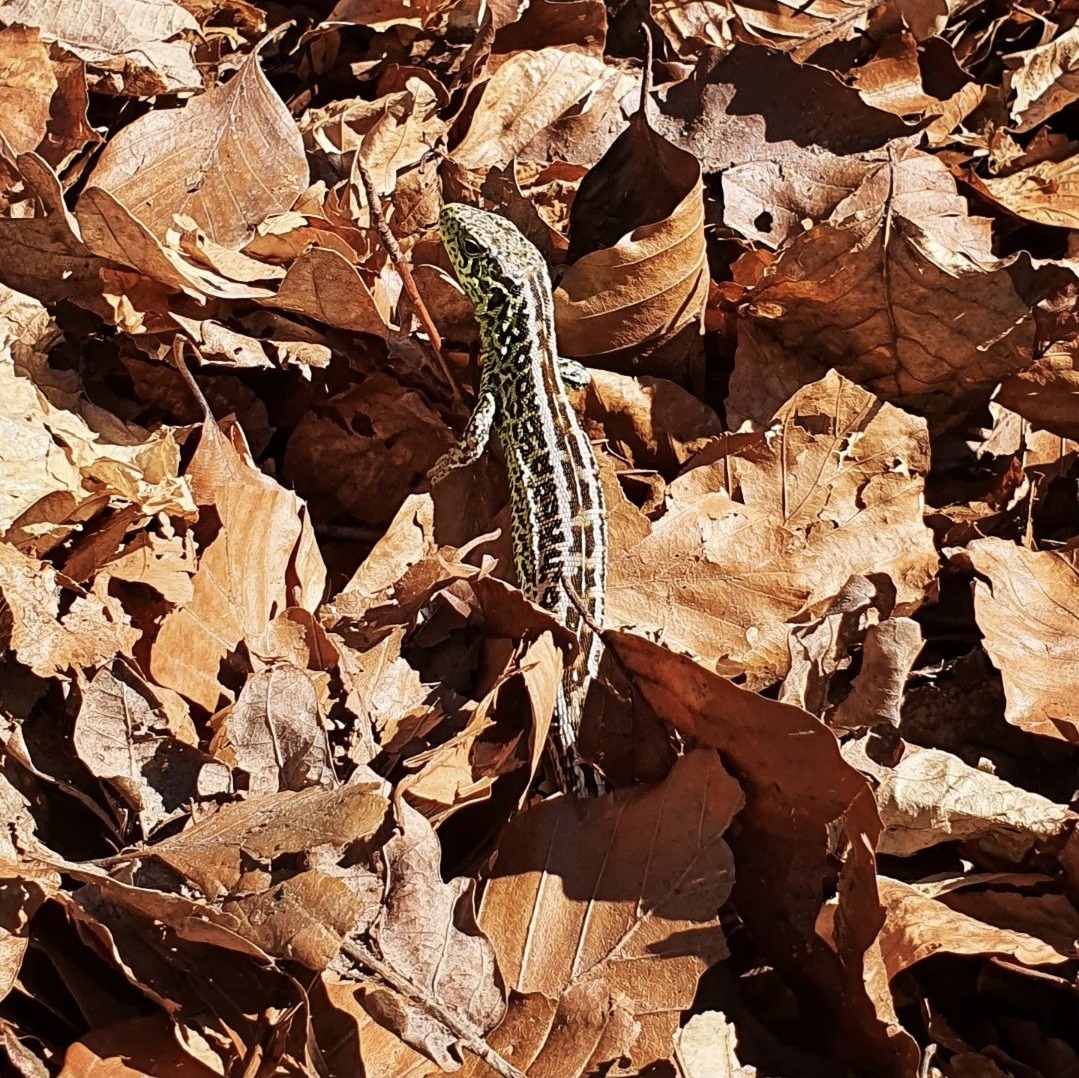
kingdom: Animalia
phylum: Chordata
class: Squamata
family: Lacertidae
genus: Lacerta
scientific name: Lacerta agilis
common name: Markfirben
